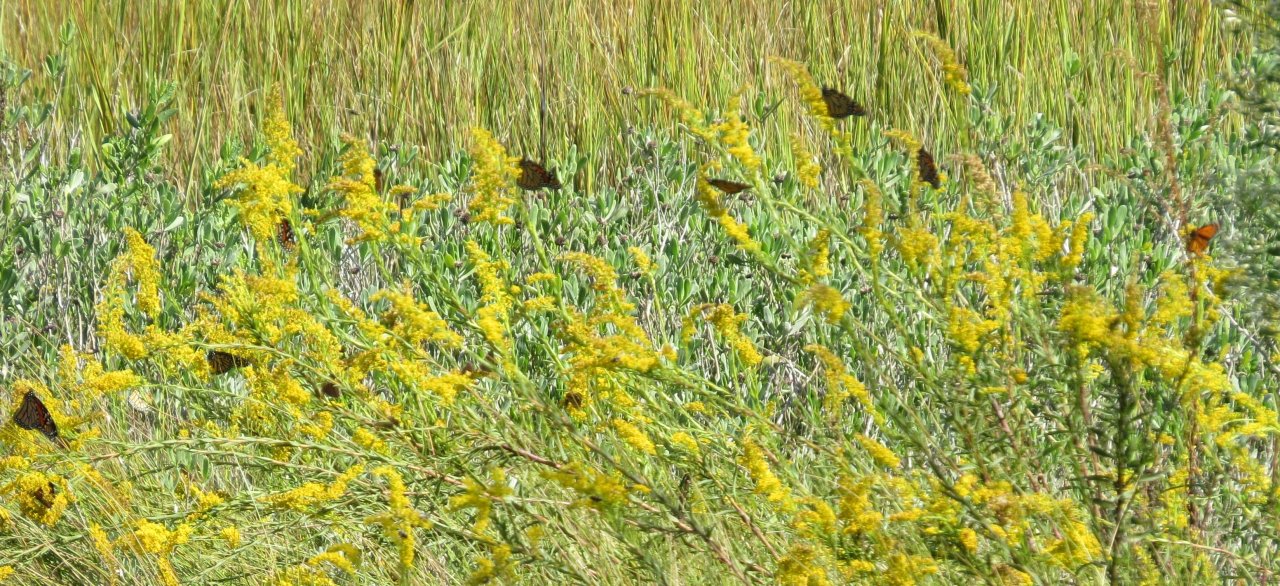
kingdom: Animalia
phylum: Arthropoda
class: Insecta
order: Lepidoptera
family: Nymphalidae
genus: Danaus
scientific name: Danaus plexippus
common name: Monarch
